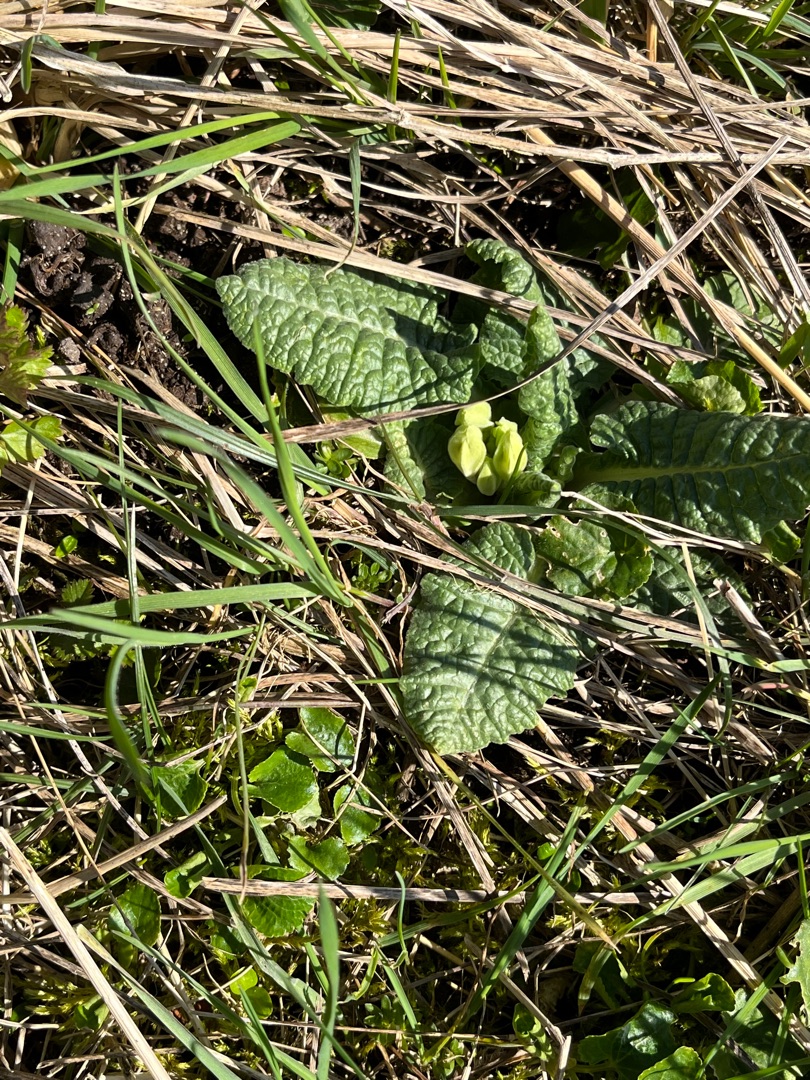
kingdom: Plantae
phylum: Tracheophyta
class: Magnoliopsida
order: Ericales
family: Primulaceae
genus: Primula
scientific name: Primula veris
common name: Hulkravet kodriver
